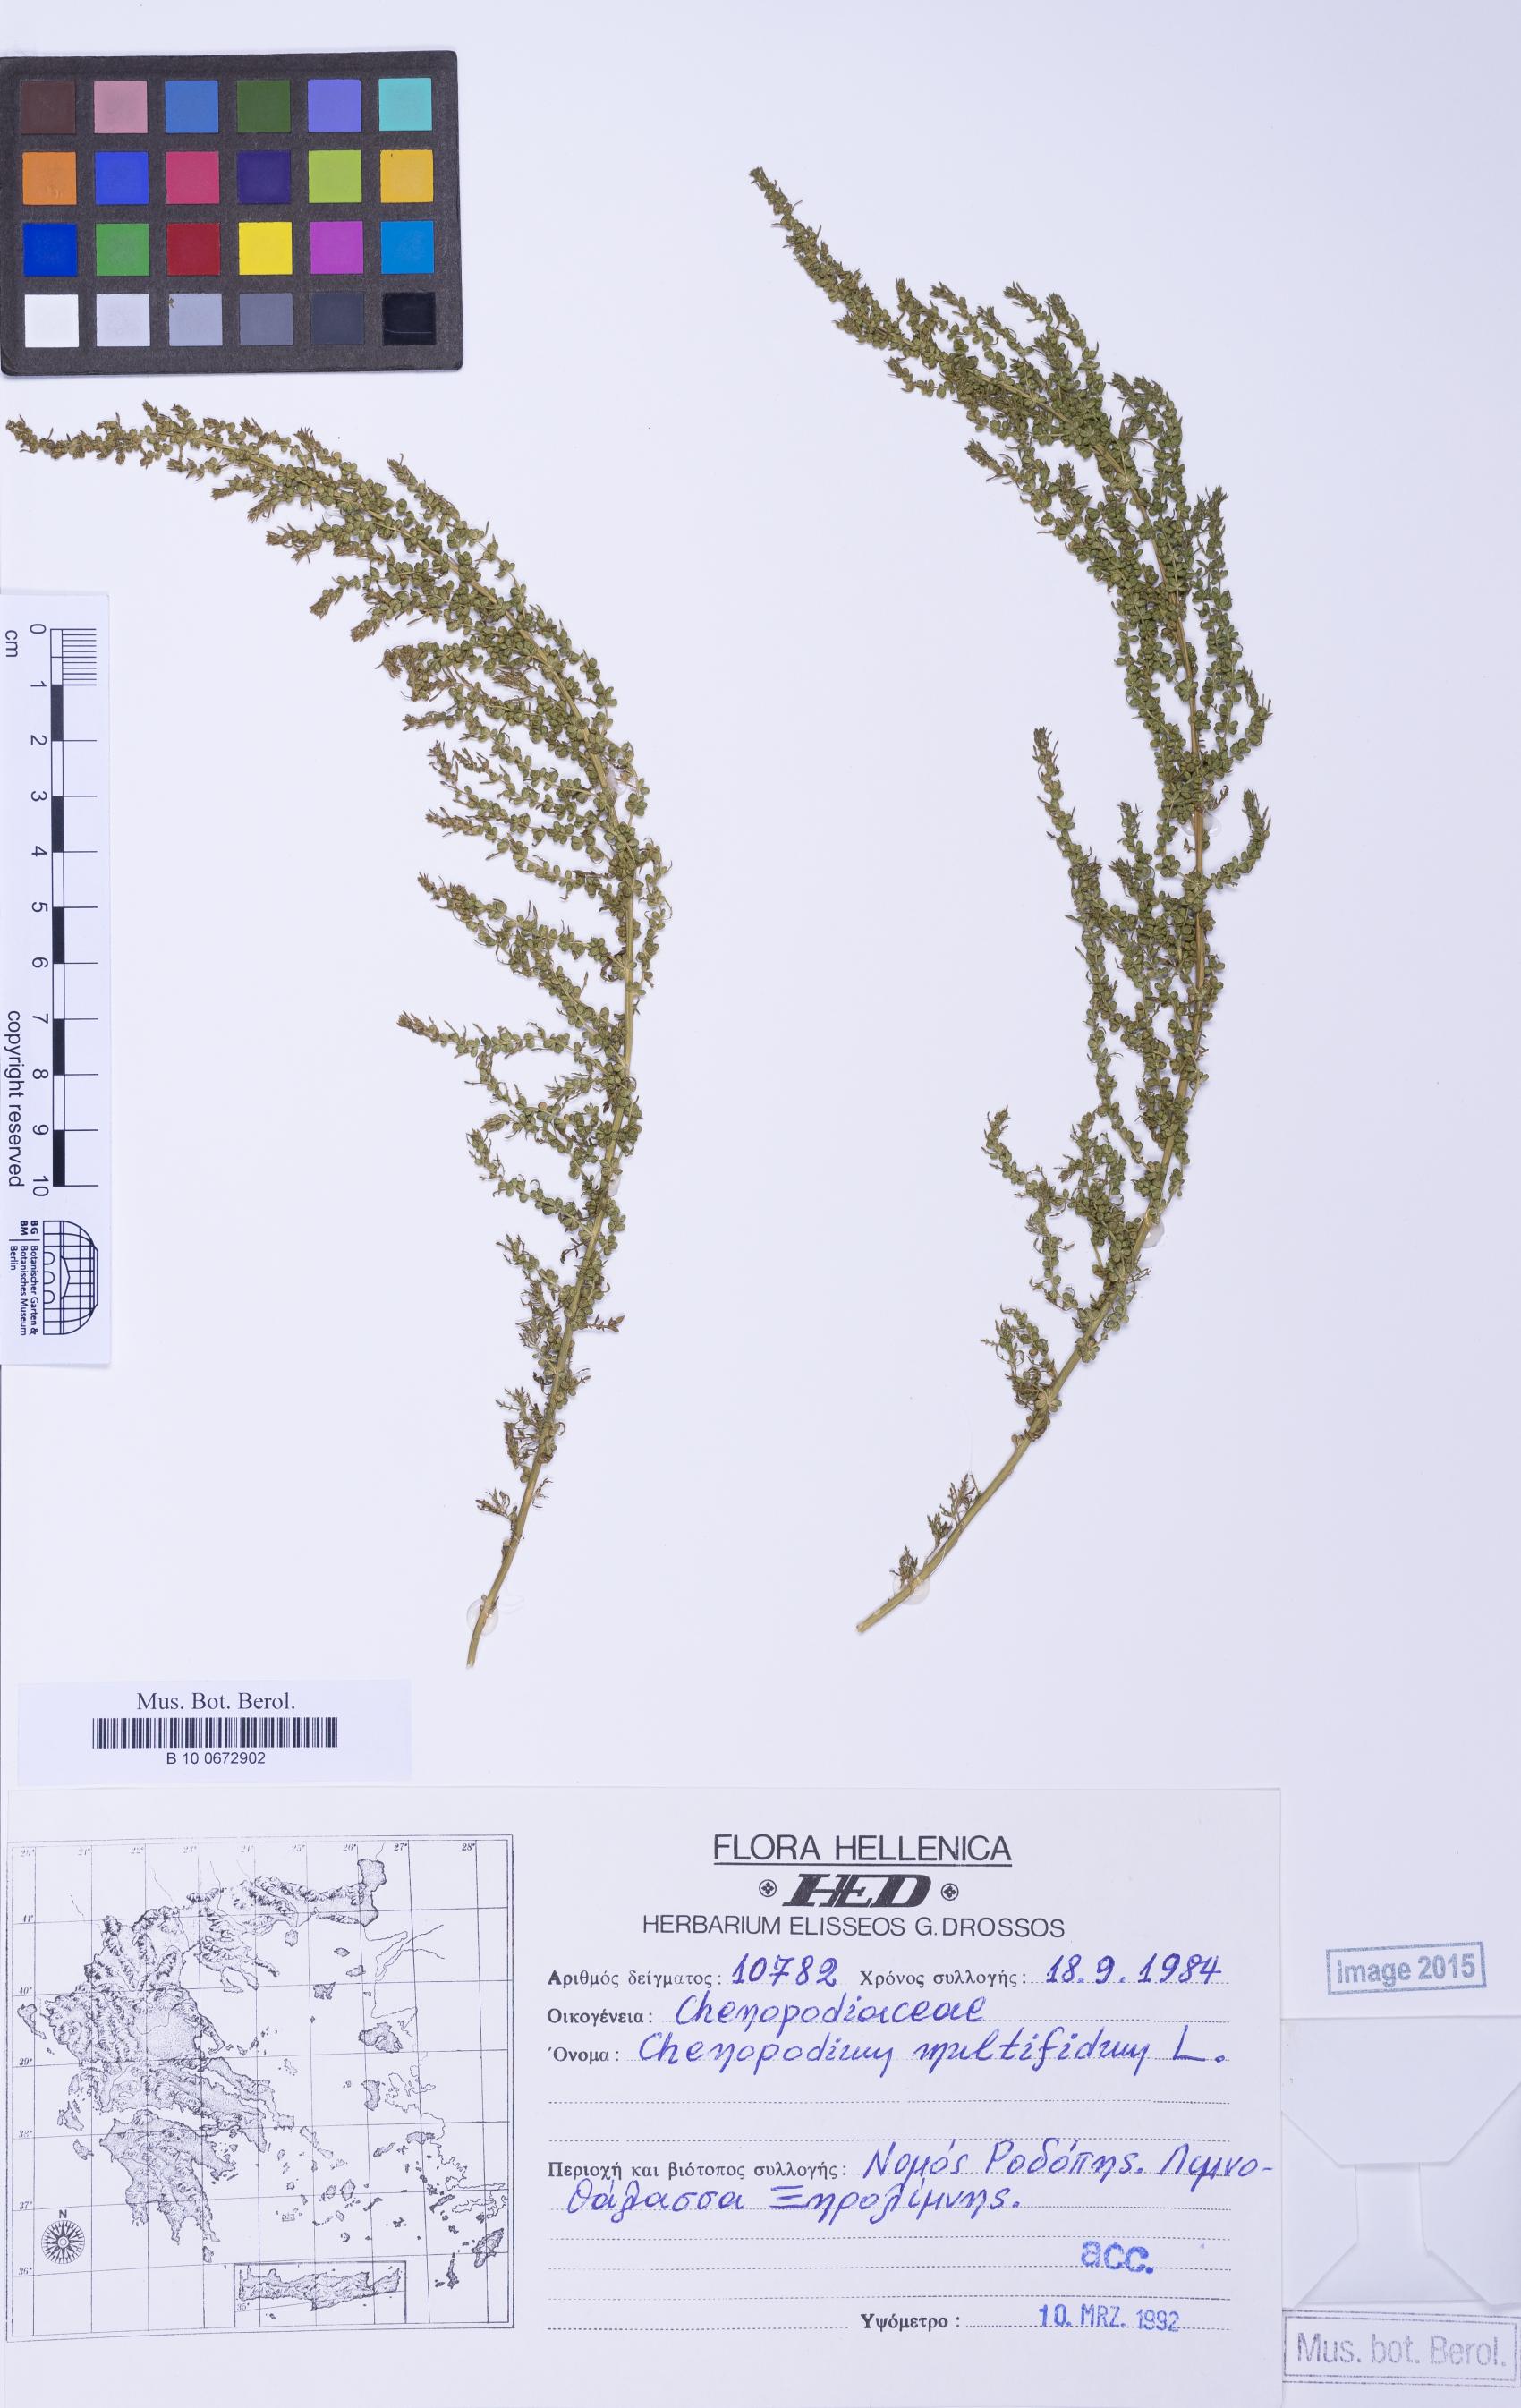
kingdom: Plantae
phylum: Tracheophyta
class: Magnoliopsida
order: Caryophyllales
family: Amaranthaceae
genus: Dysphania
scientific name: Dysphania multifida
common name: Cutleaf goosefoot
